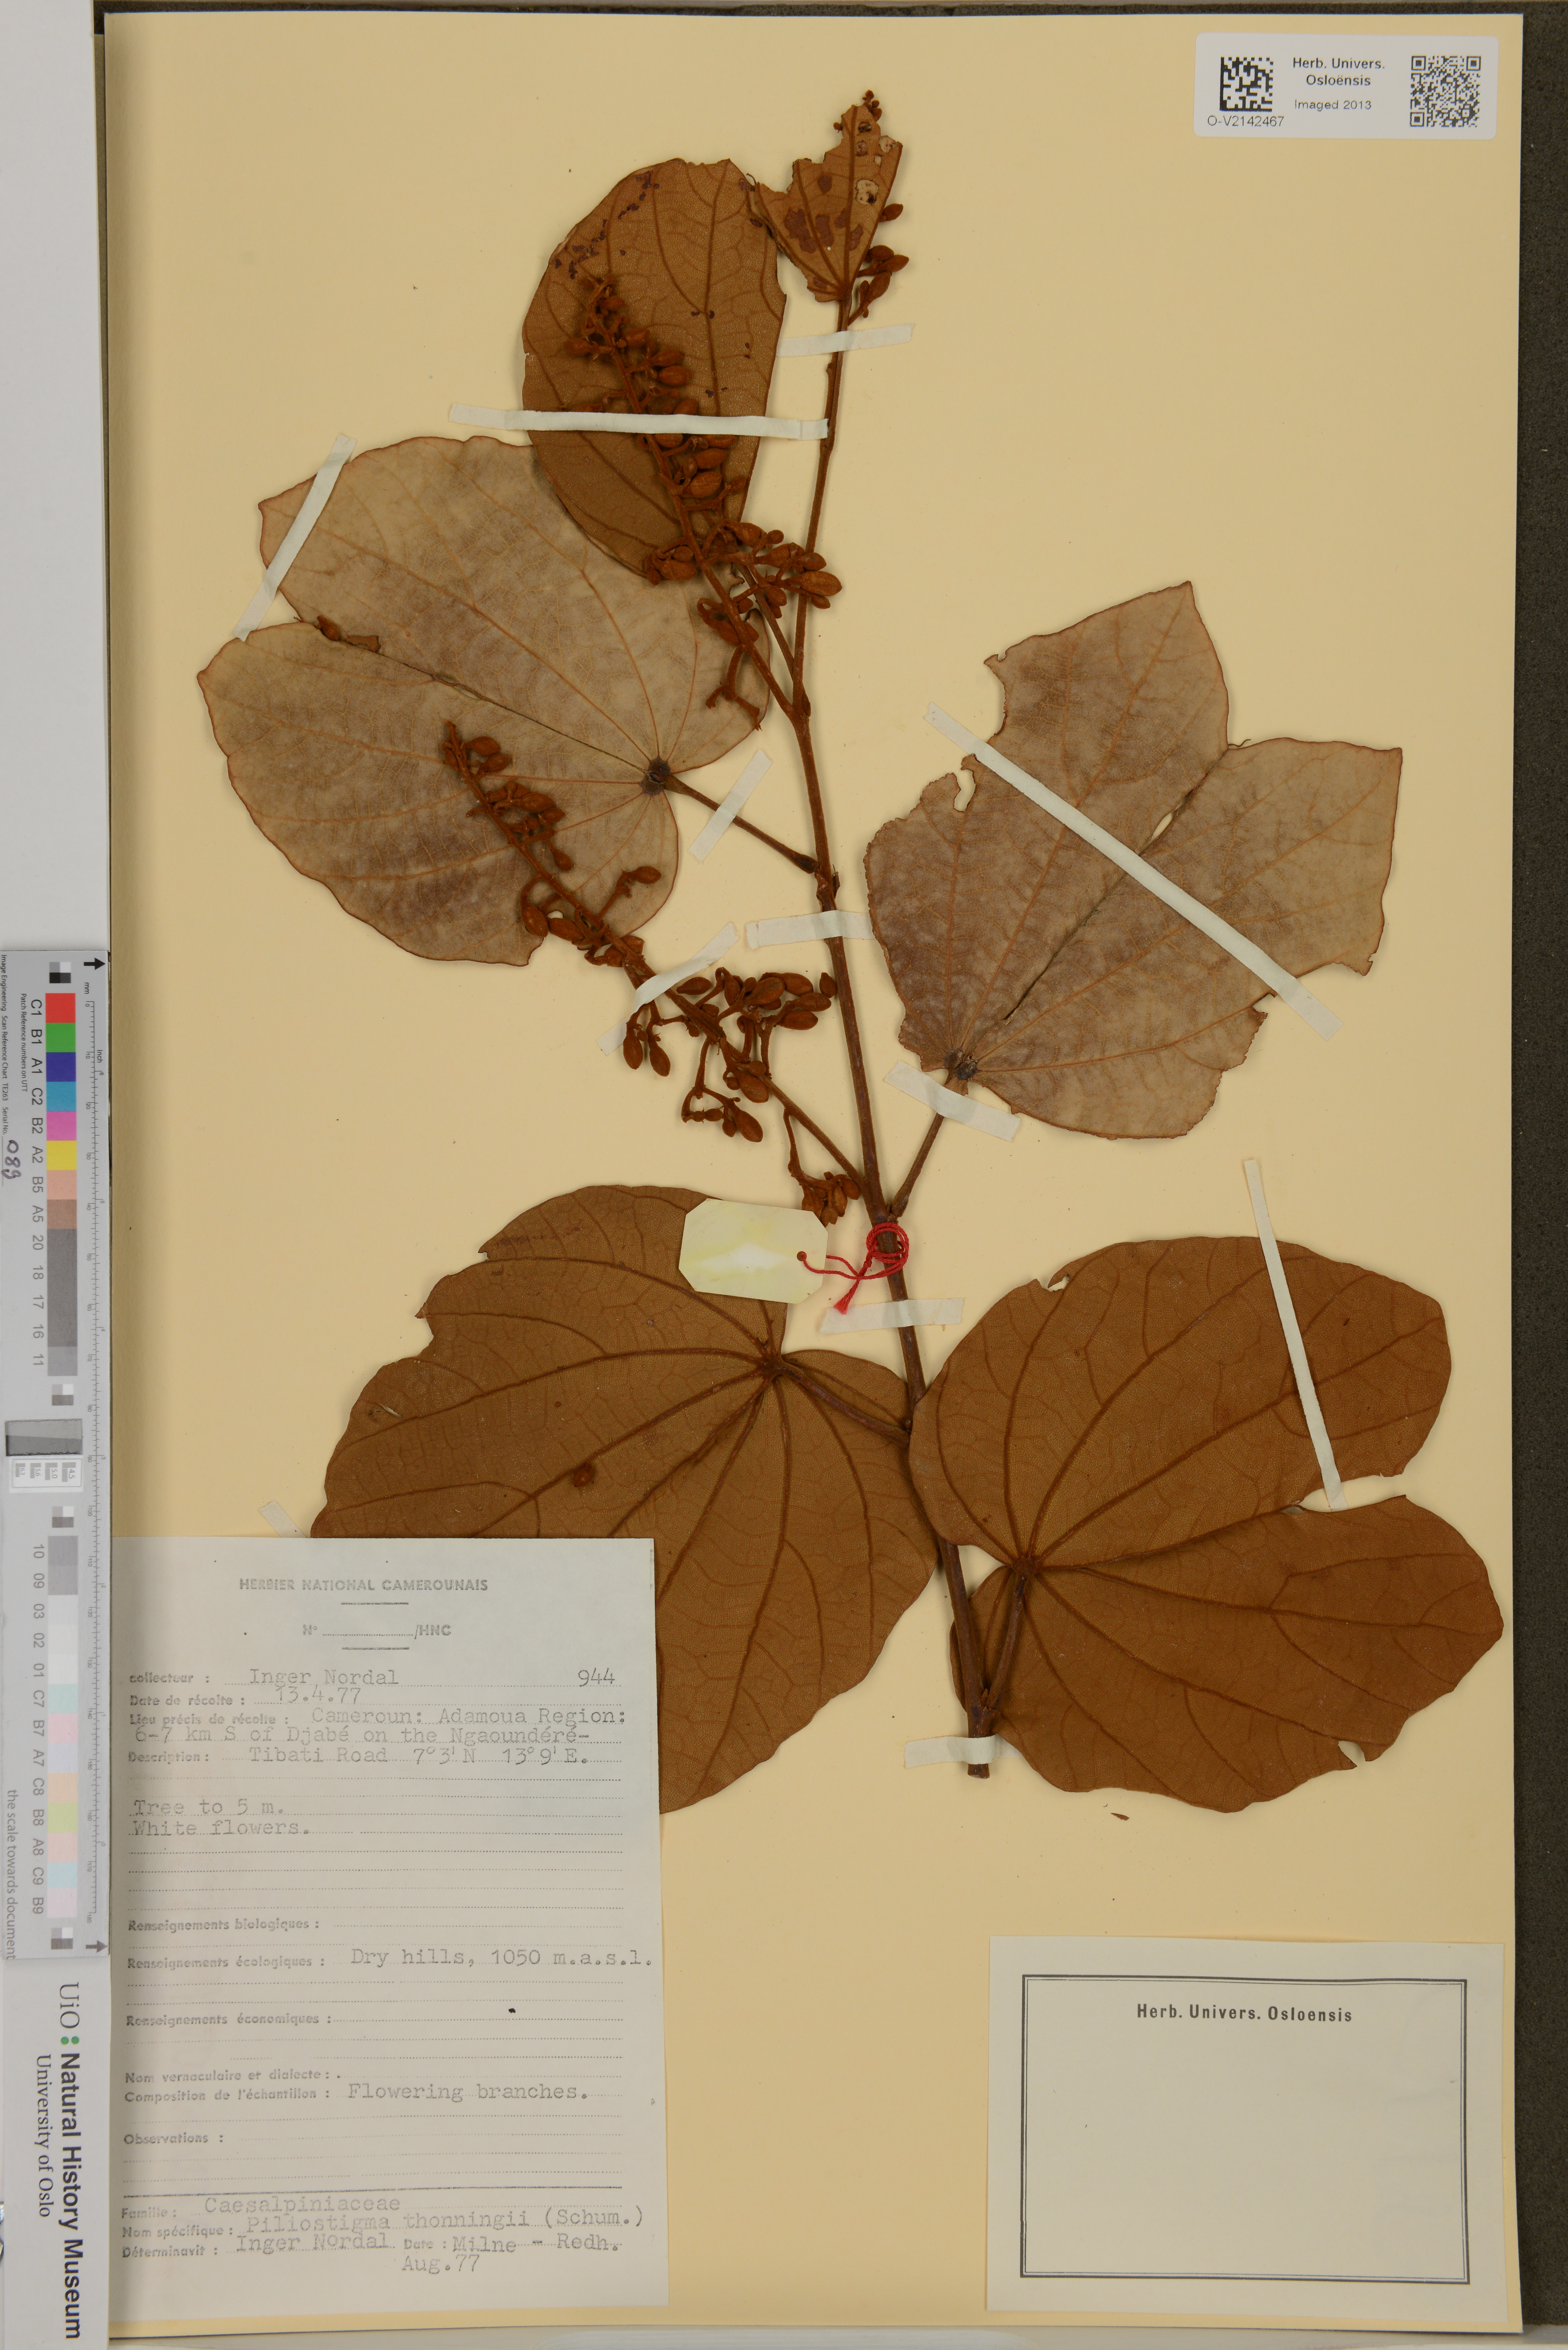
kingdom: Plantae
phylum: Tracheophyta
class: Magnoliopsida
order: Fabales
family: Fabaceae
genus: Piliostigma
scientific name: Piliostigma thonningii
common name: Kao
